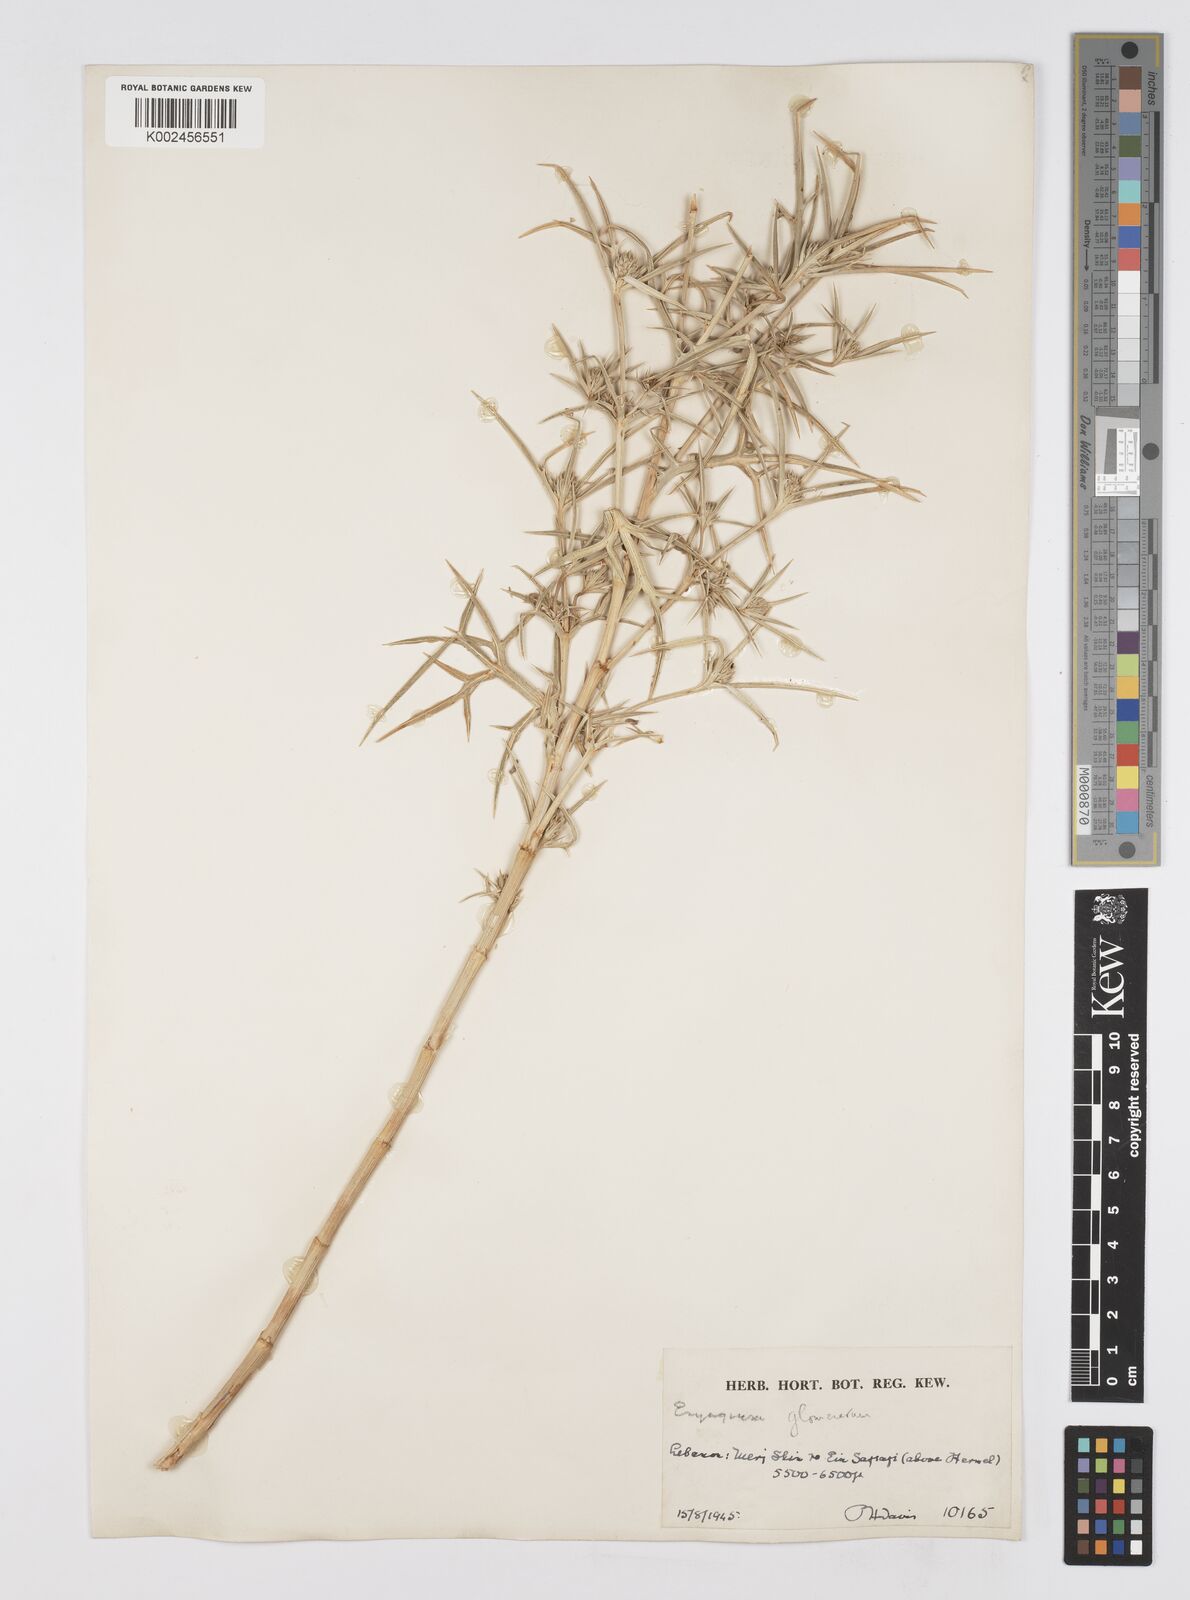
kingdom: Plantae
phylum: Tracheophyta
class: Magnoliopsida
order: Apiales
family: Apiaceae
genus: Eryngium
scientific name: Eryngium glomeratum
